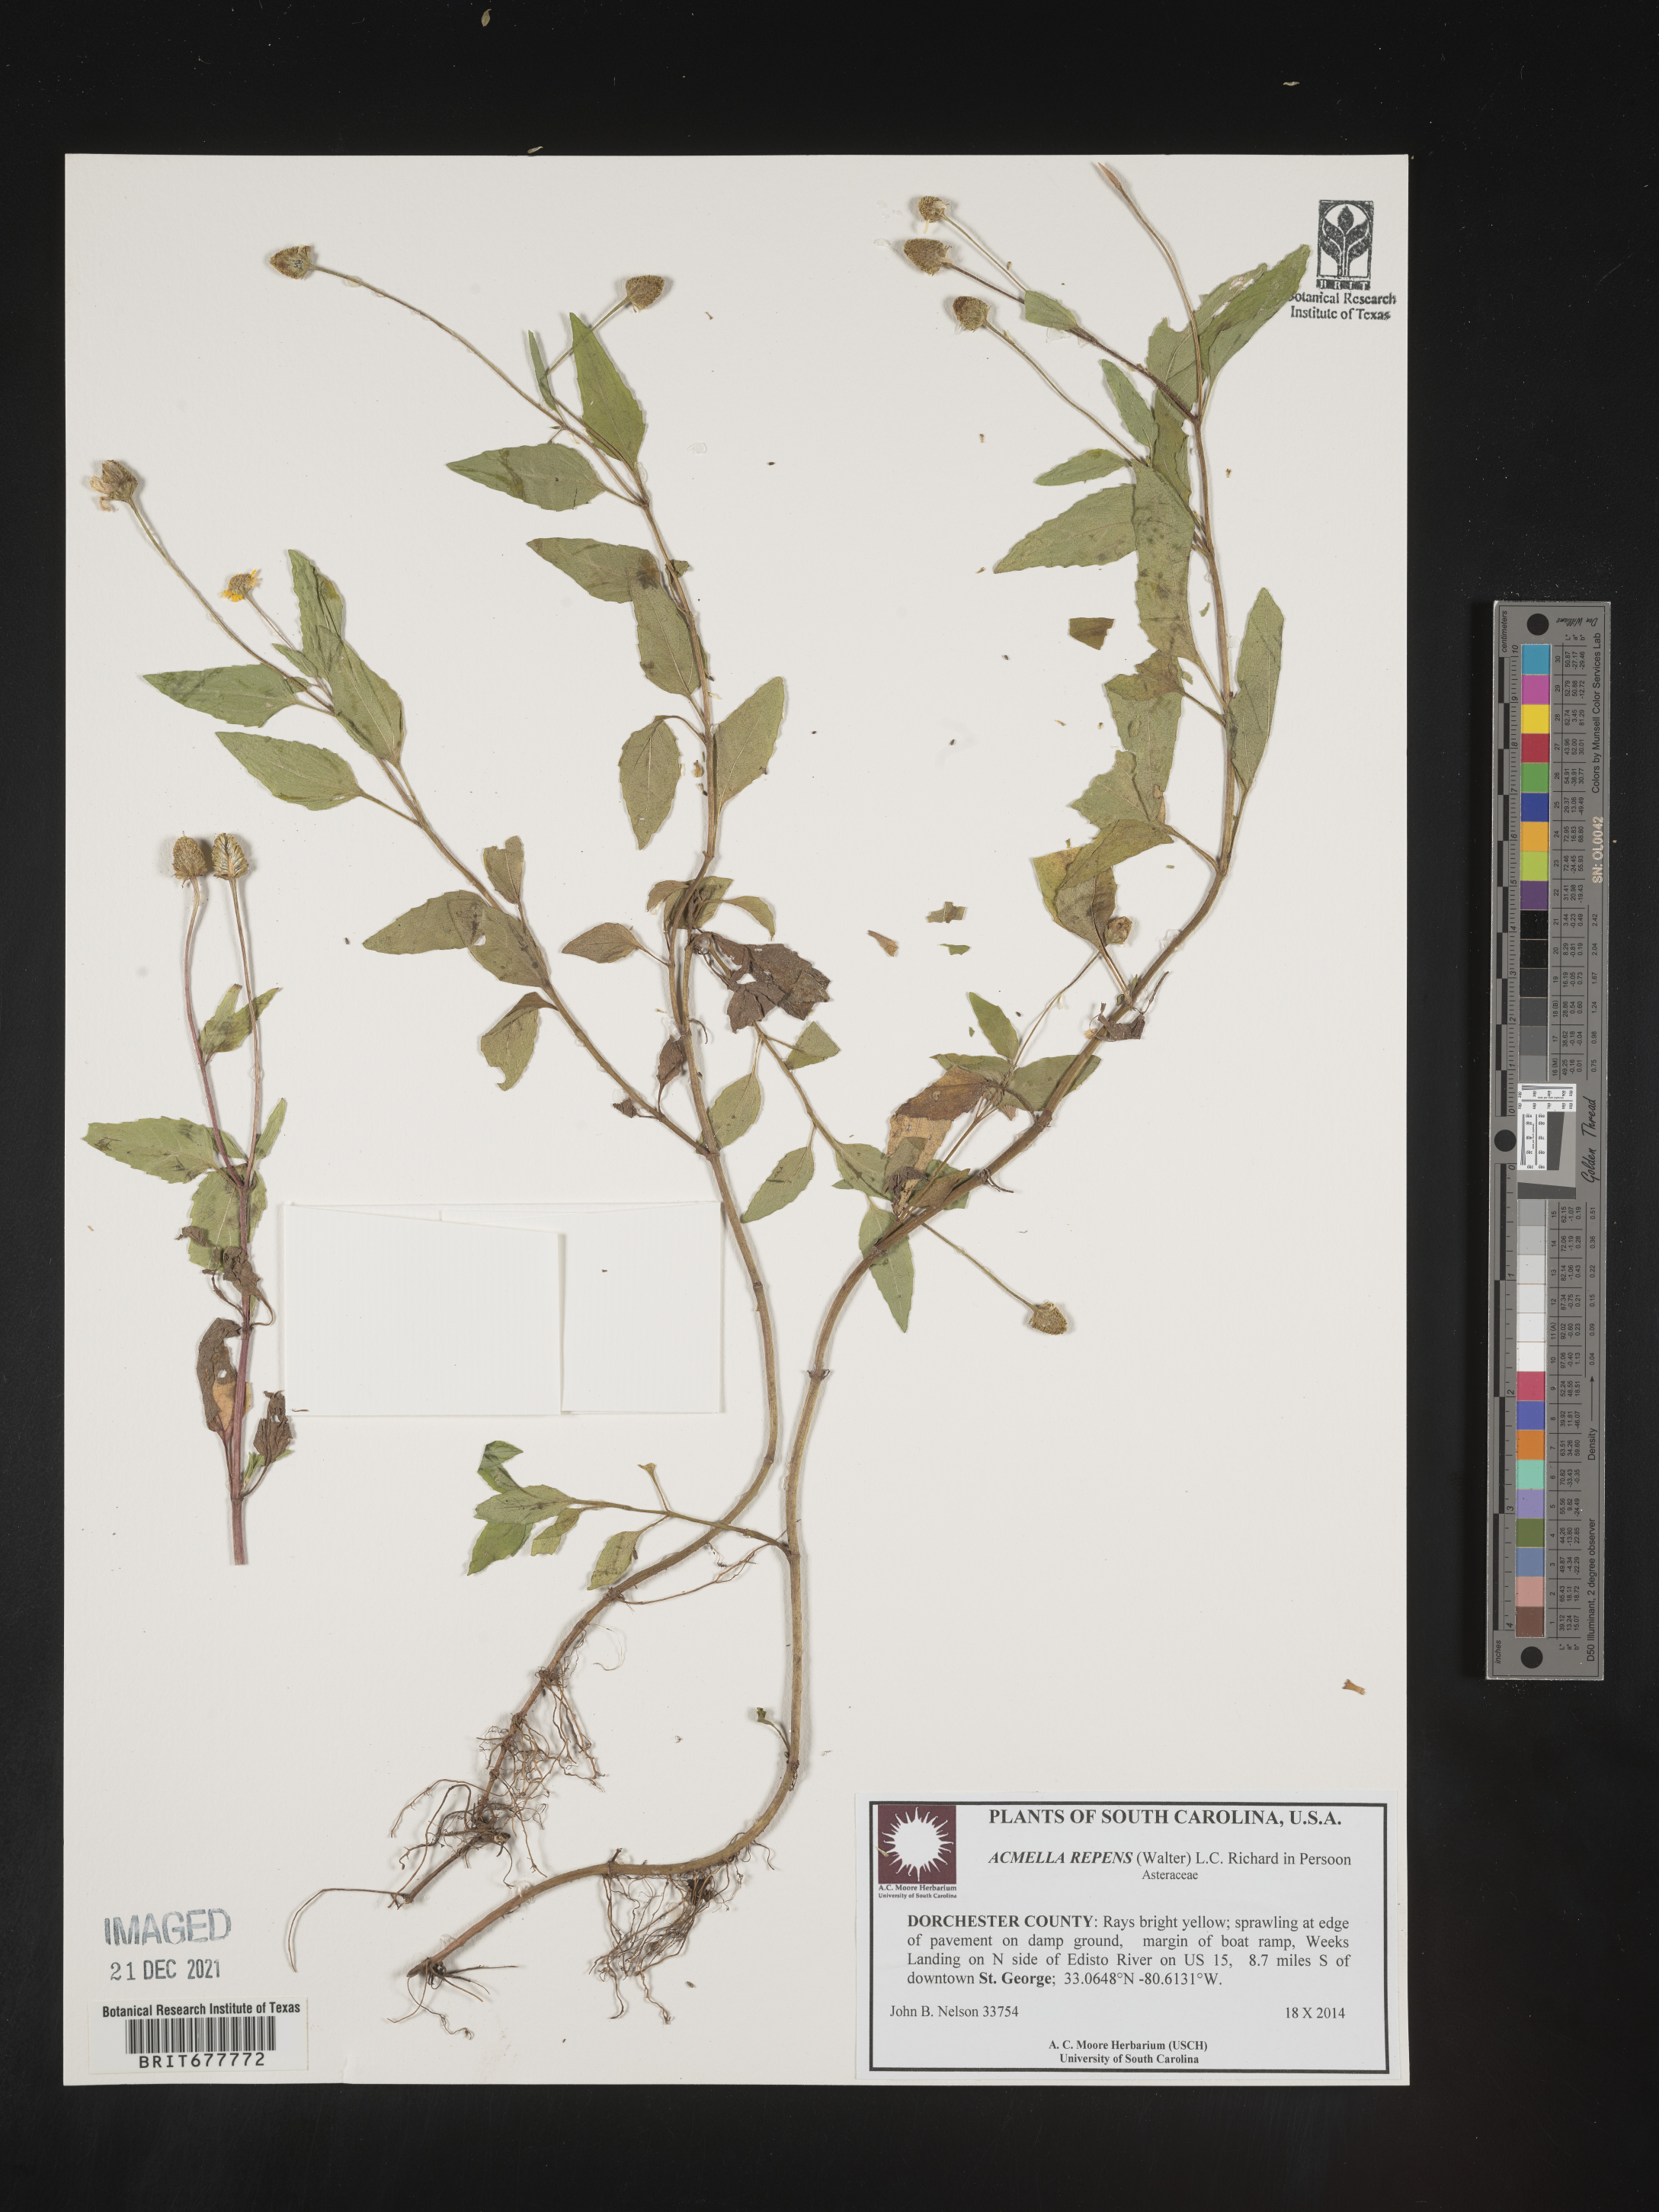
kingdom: Plantae
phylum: Tracheophyta
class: Magnoliopsida
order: Asterales
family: Asteraceae
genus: Spilanthes
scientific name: Spilanthes
